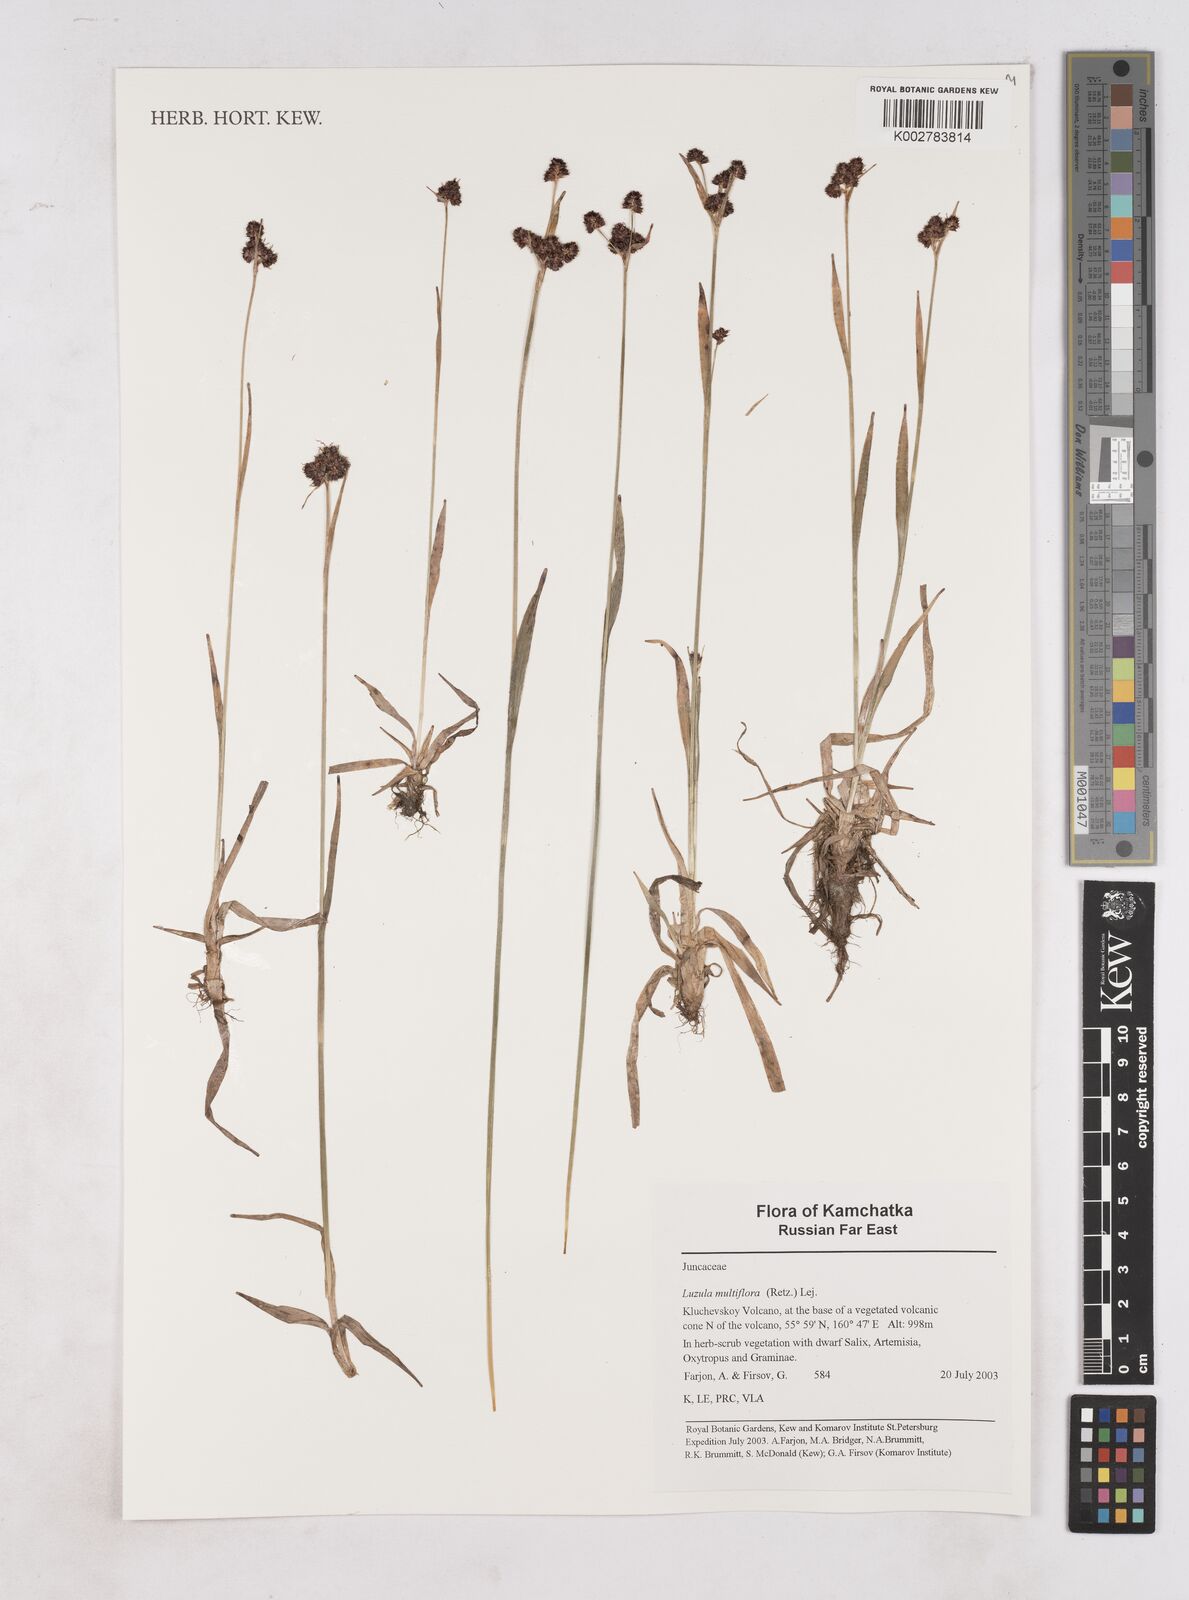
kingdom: Plantae
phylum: Tracheophyta
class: Liliopsida
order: Poales
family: Juncaceae
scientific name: Juncaceae
